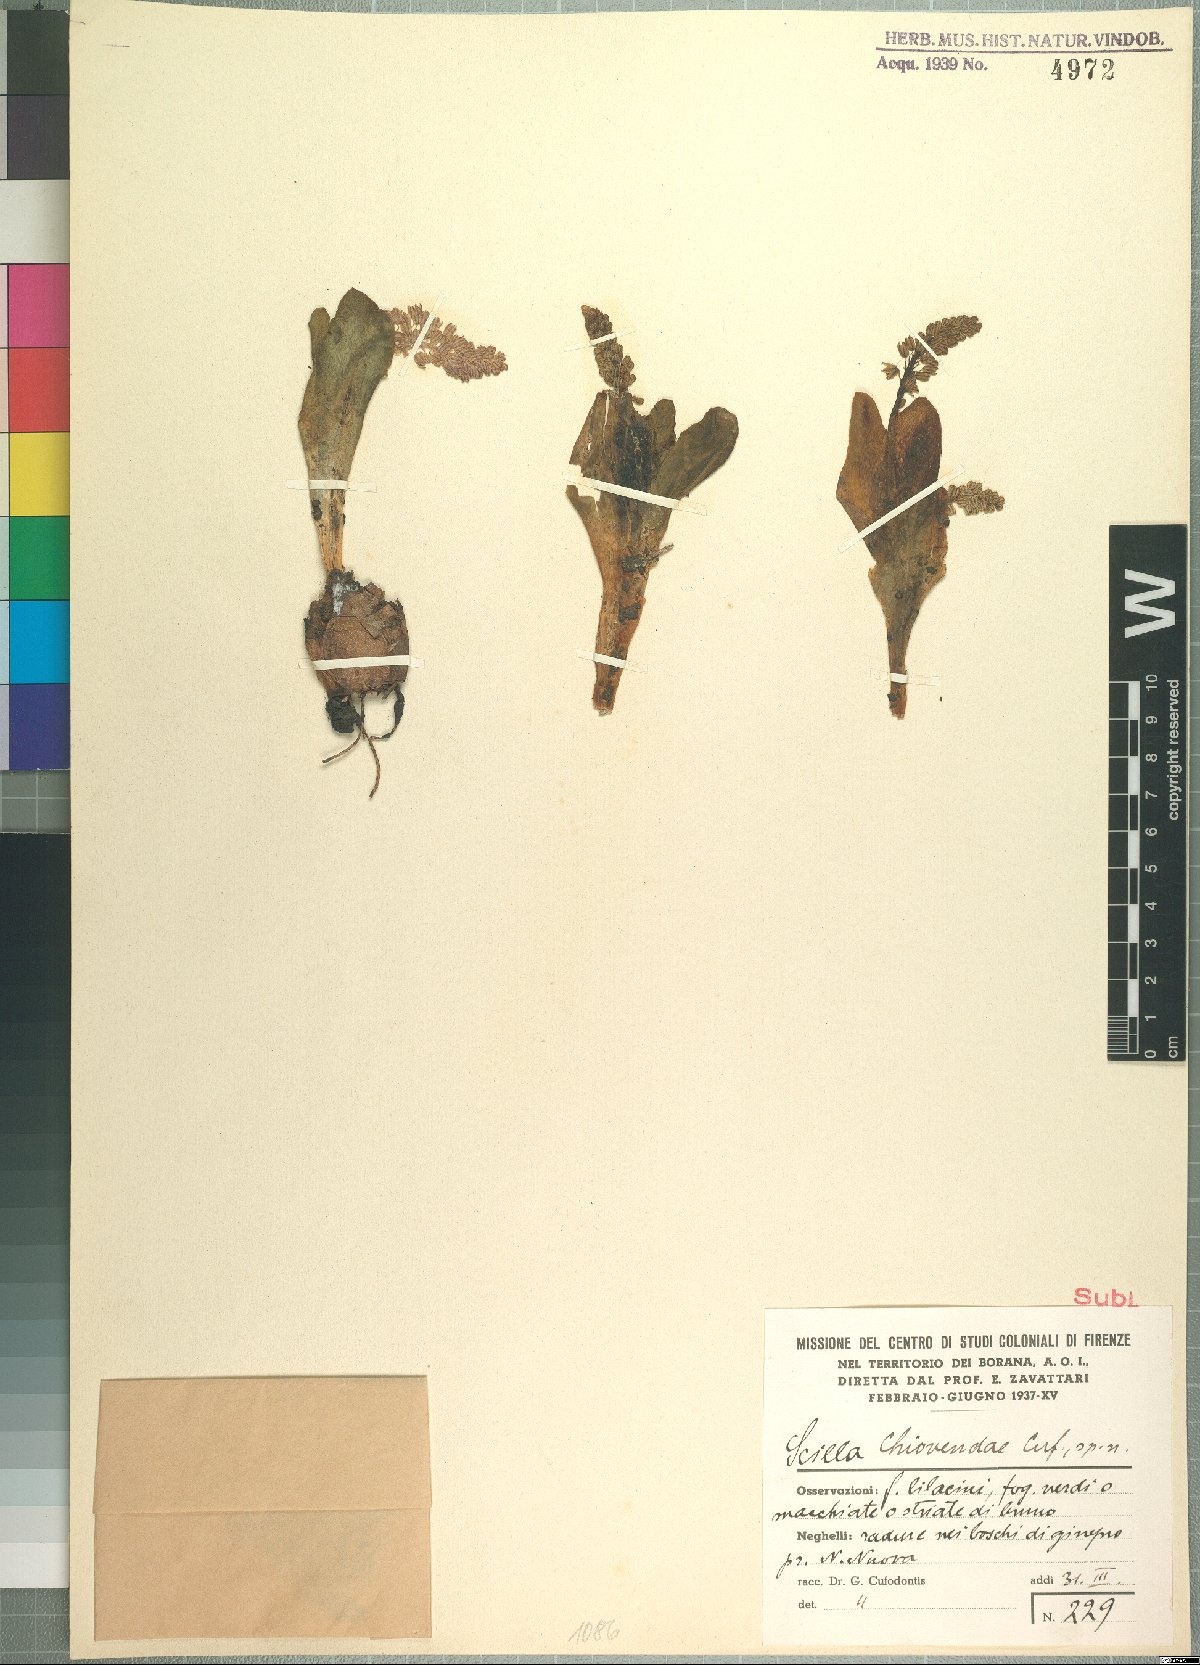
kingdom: Plantae
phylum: Tracheophyta
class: Liliopsida
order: Asparagales
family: Asparagaceae
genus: Ledebouria
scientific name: Ledebouria revoluta
